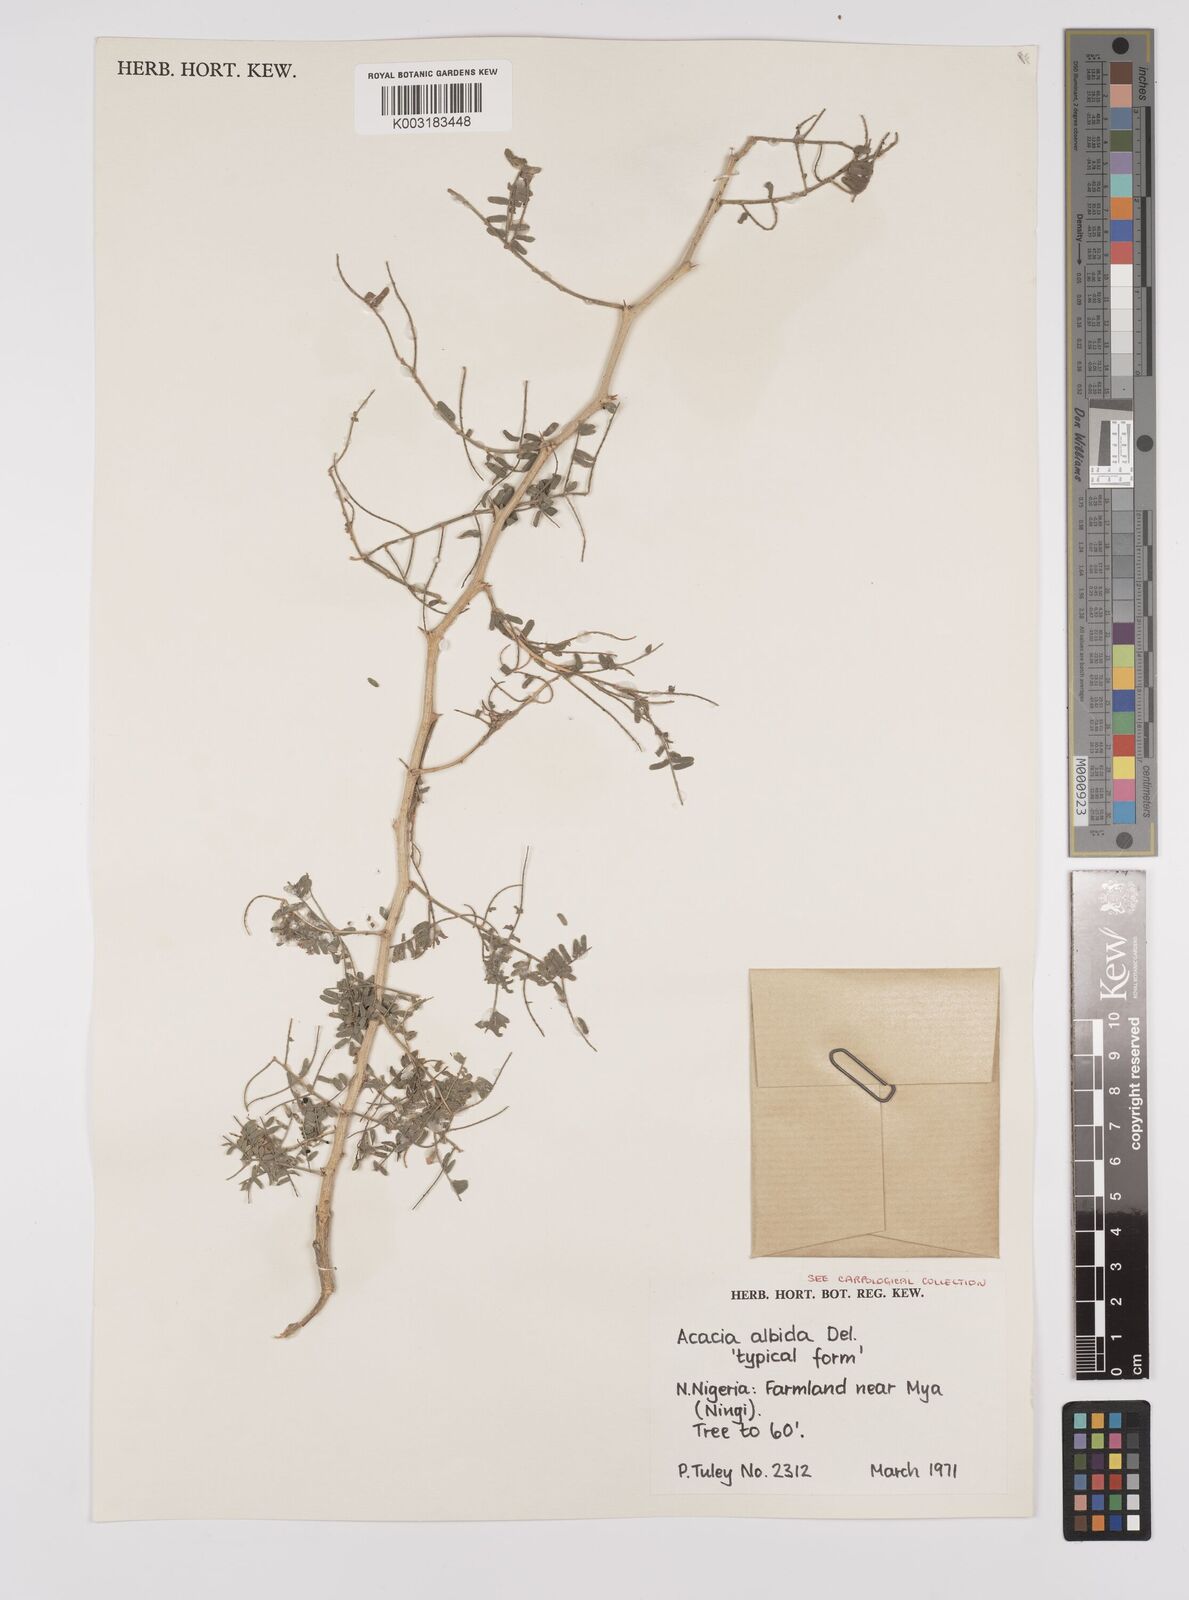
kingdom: Plantae
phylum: Tracheophyta
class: Magnoliopsida
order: Fabales
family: Fabaceae
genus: Faidherbia
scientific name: Faidherbia albida
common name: Anatree
